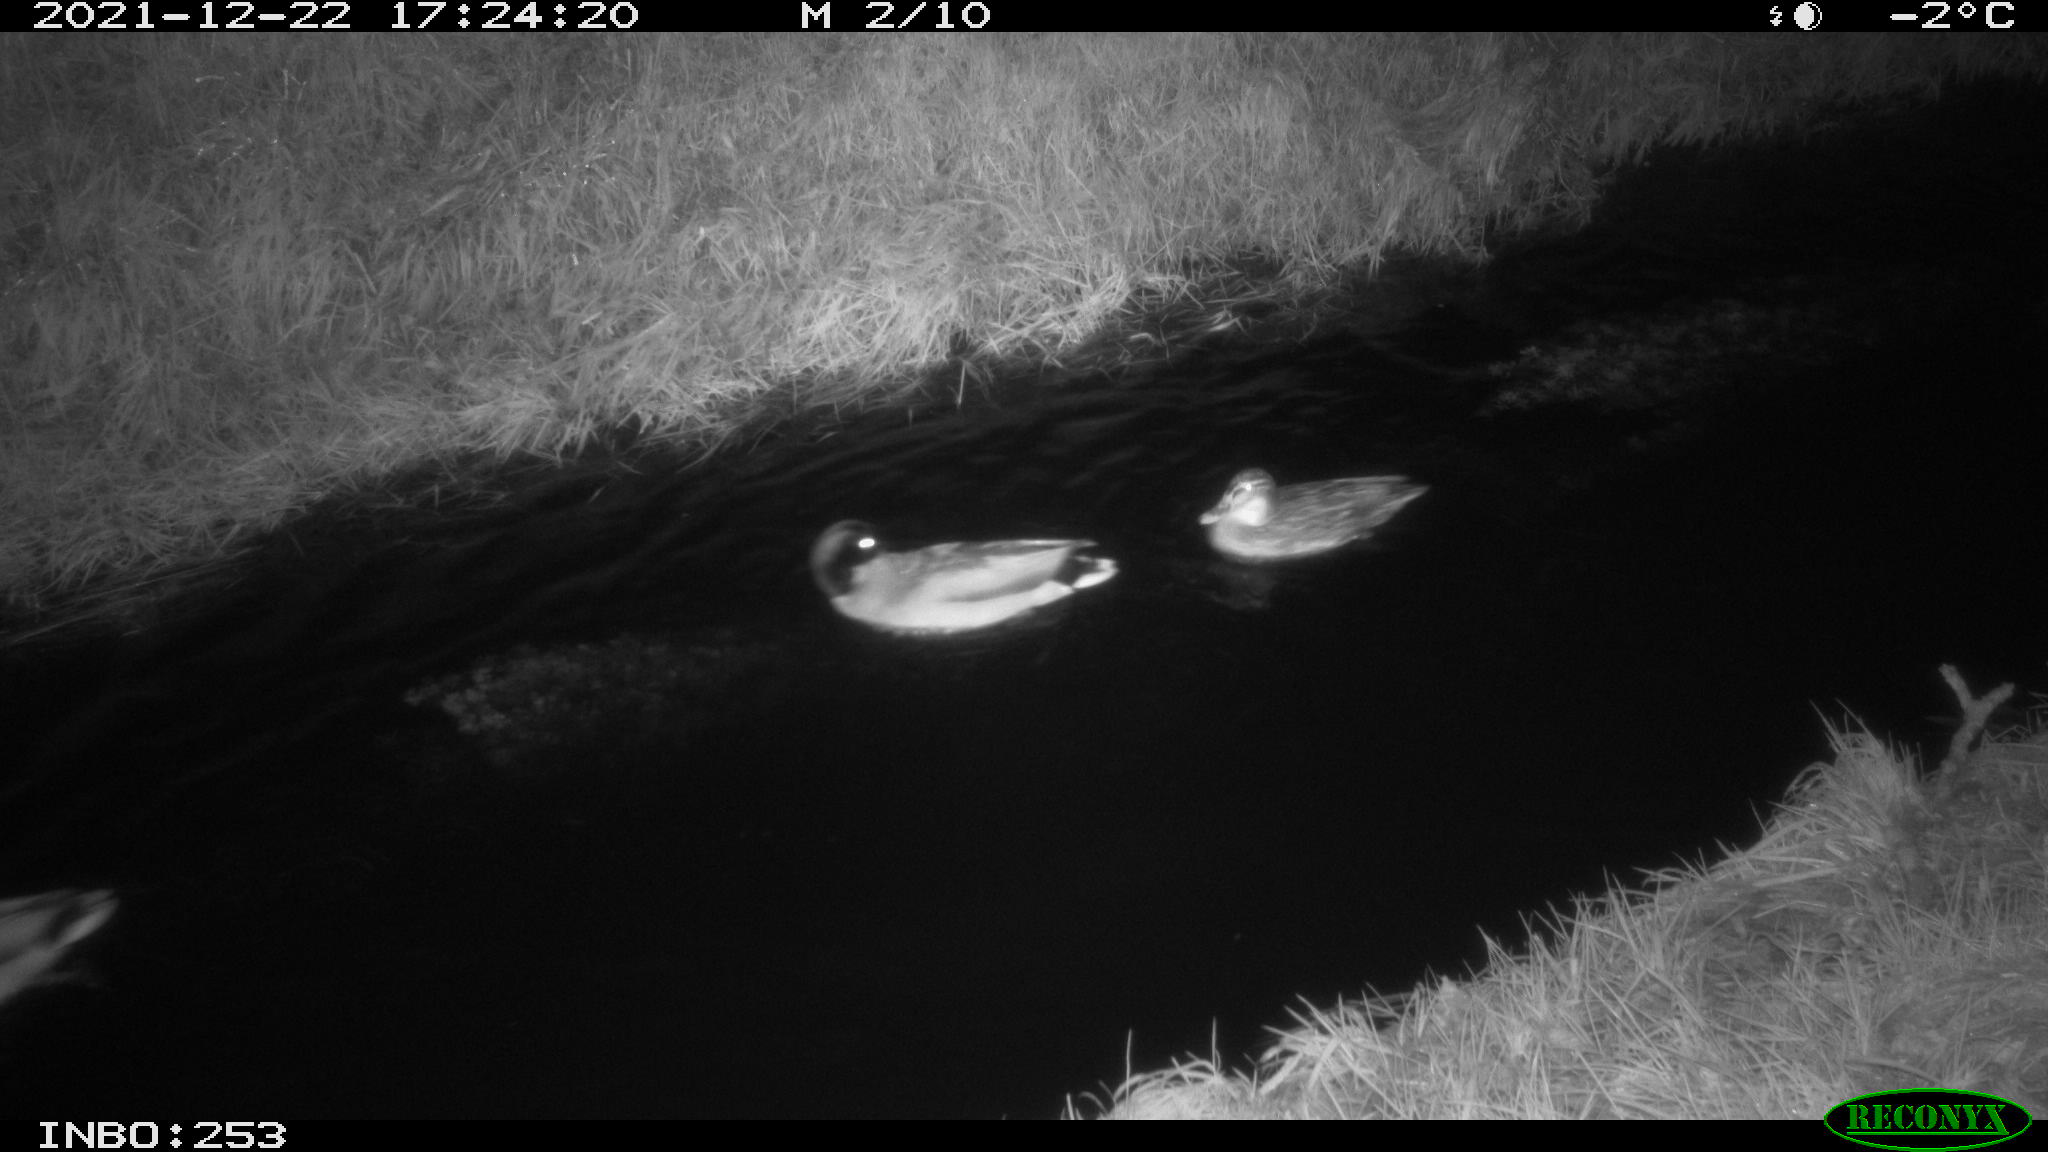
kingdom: Animalia
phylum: Chordata
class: Aves
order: Anseriformes
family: Anatidae
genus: Anas
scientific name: Anas
